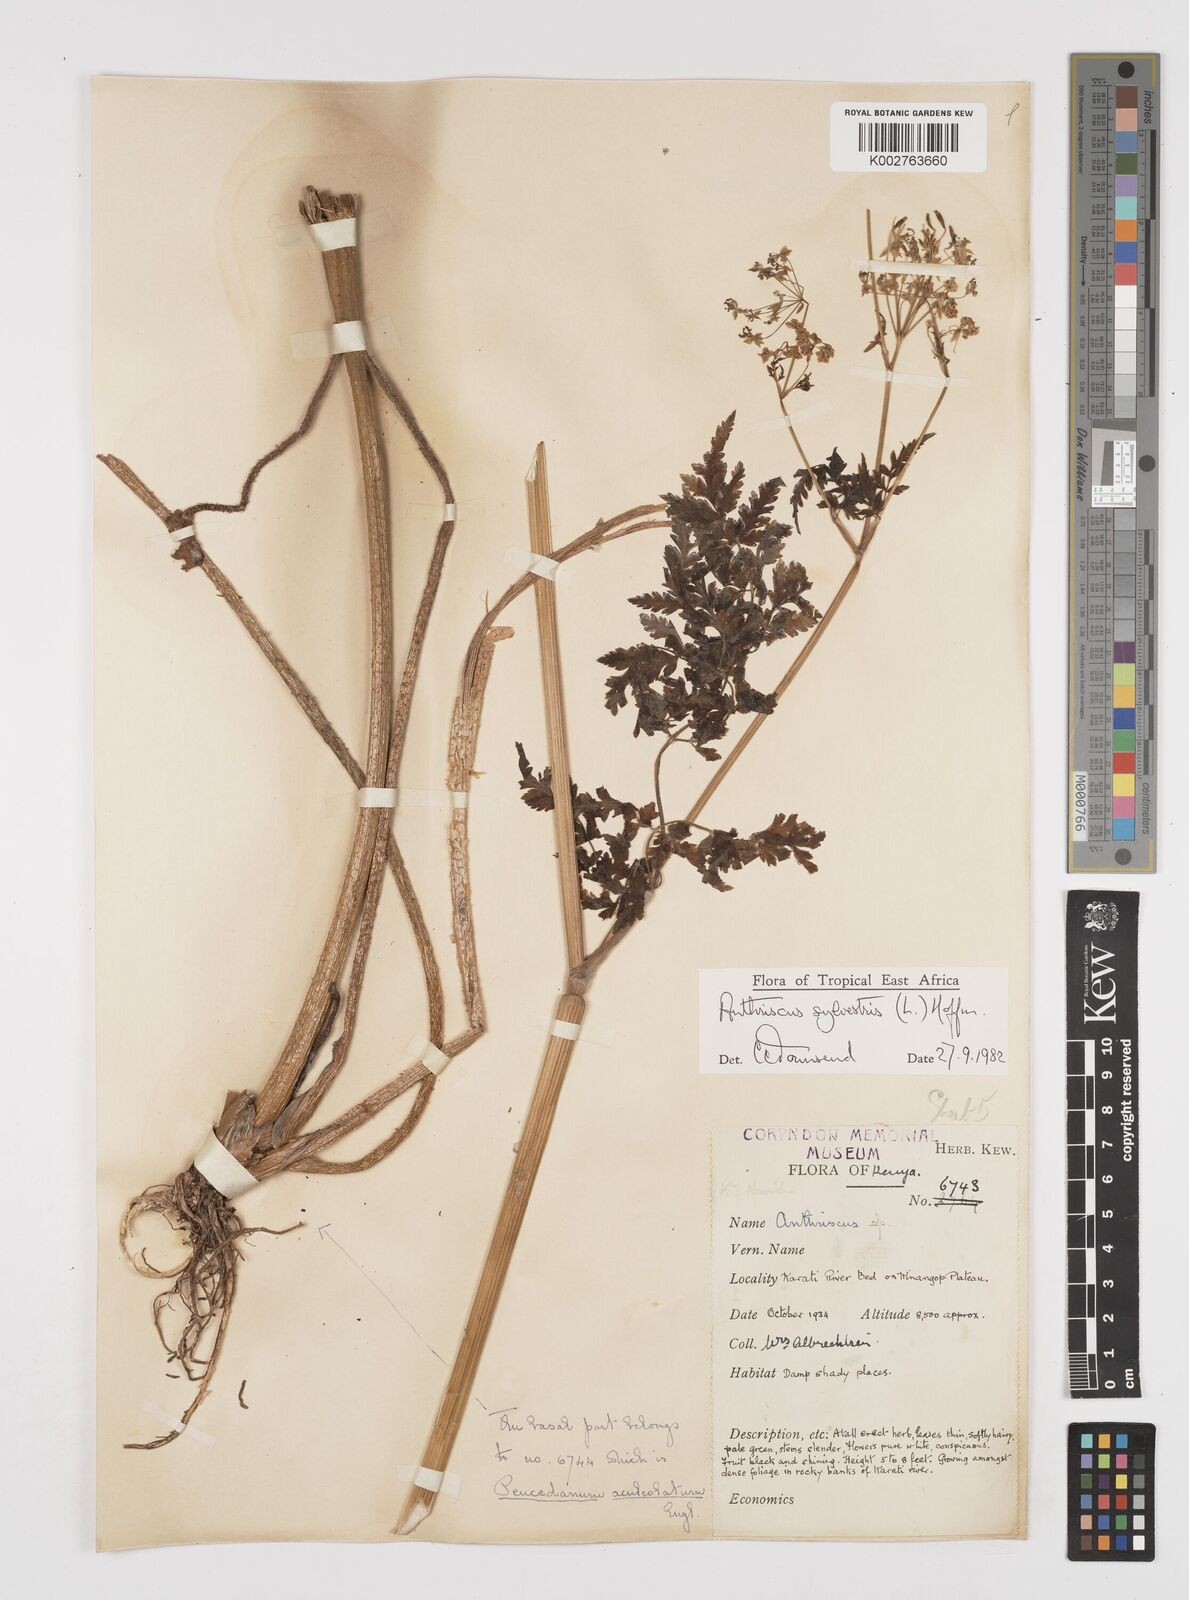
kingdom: Plantae
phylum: Tracheophyta
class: Magnoliopsida
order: Apiales
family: Apiaceae
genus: Anthriscus
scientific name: Anthriscus sylvestris
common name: Cow parsley
